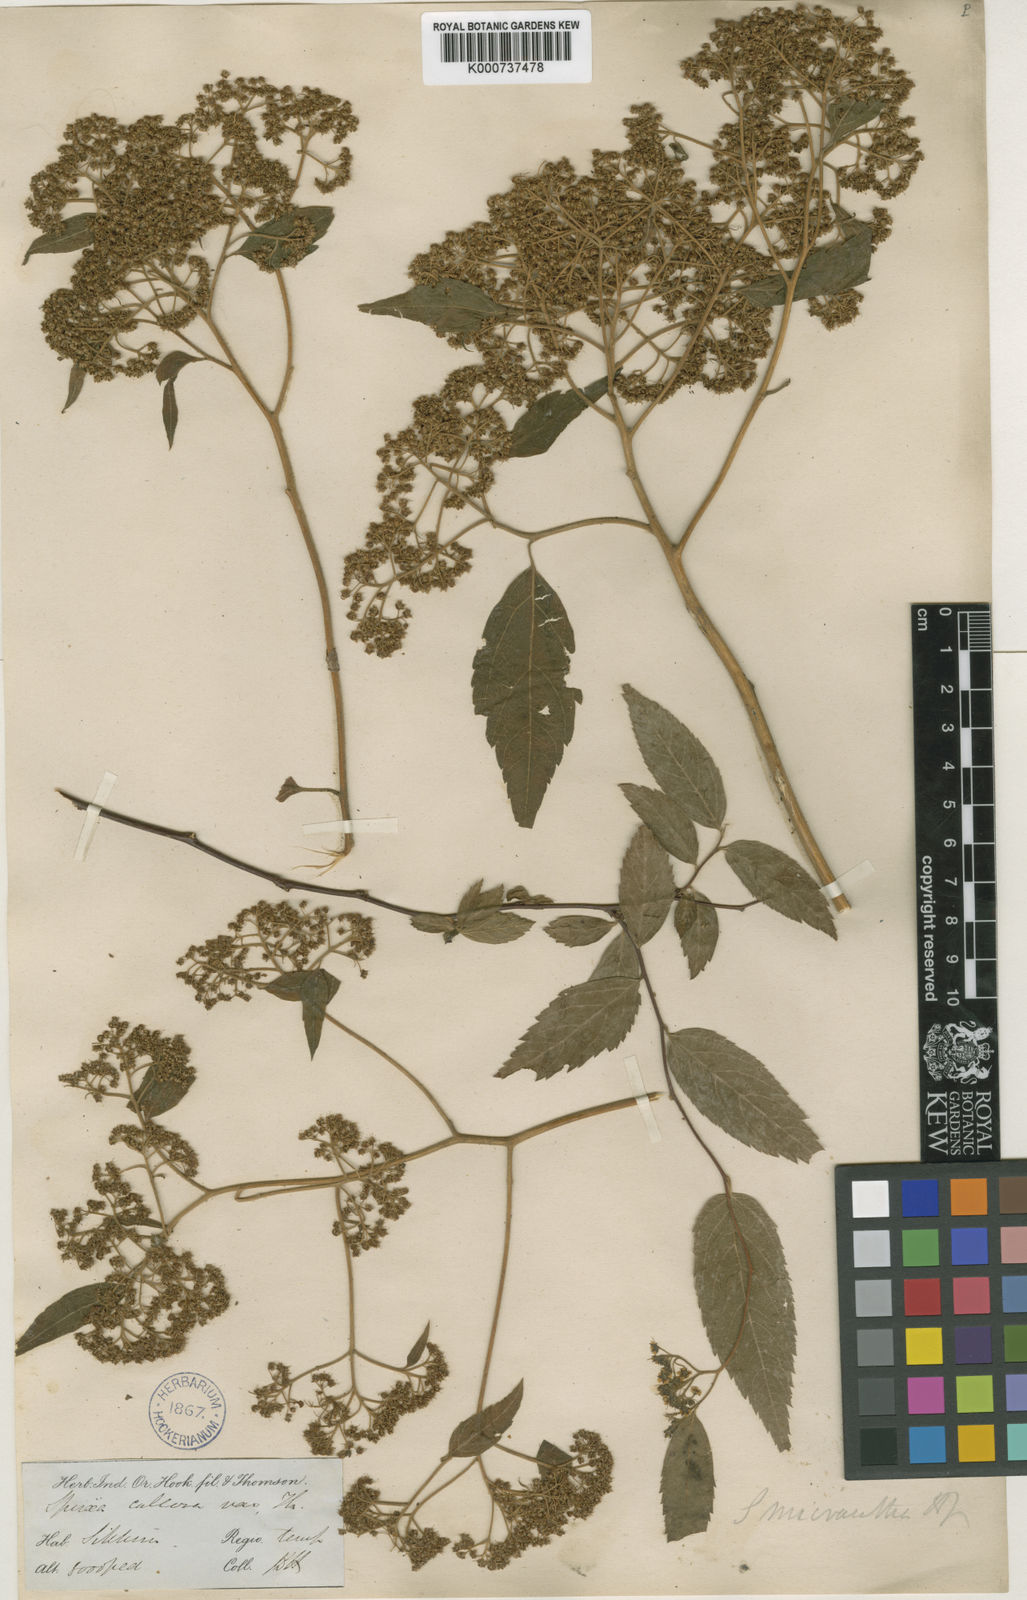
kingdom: Plantae
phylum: Tracheophyta
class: Magnoliopsida
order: Rosales
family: Rosaceae
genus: Spiraea
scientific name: Spiraea japonica
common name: Japanese spiraea
